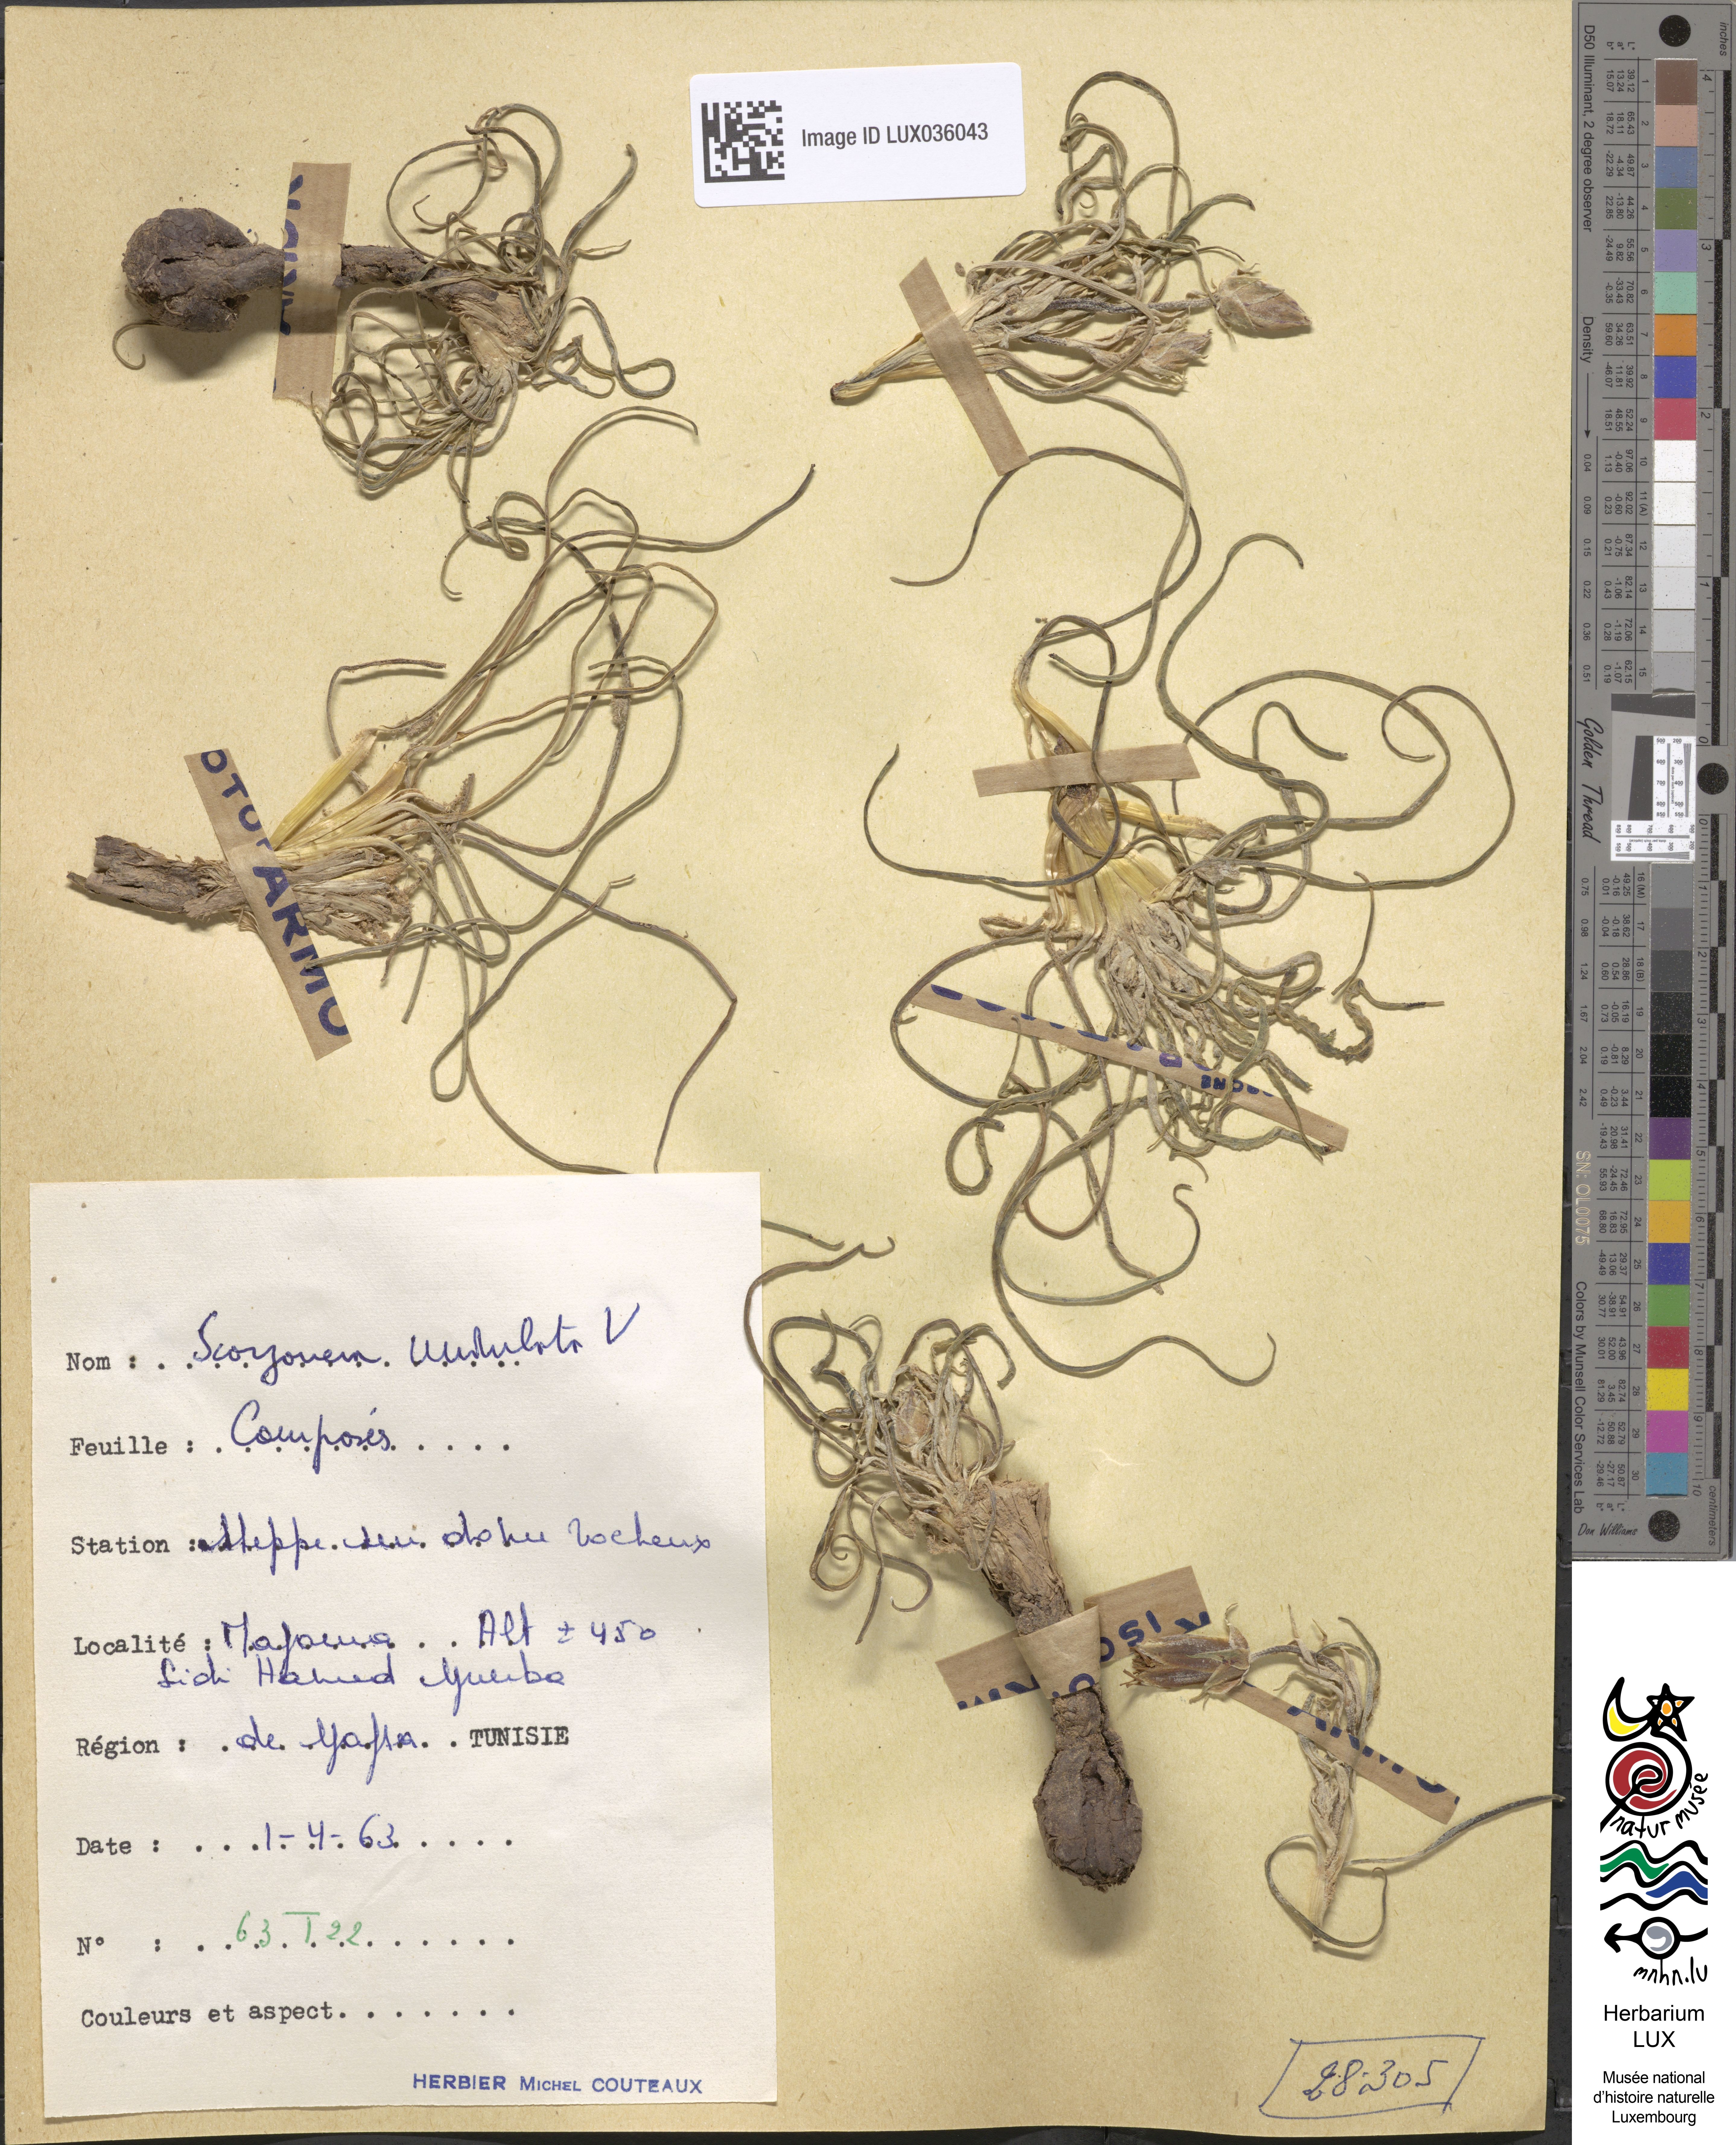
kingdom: Plantae
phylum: Tracheophyta
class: Magnoliopsida
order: Asterales
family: Asteraceae
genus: Pseudopodospermum
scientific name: Pseudopodospermum undulatum
